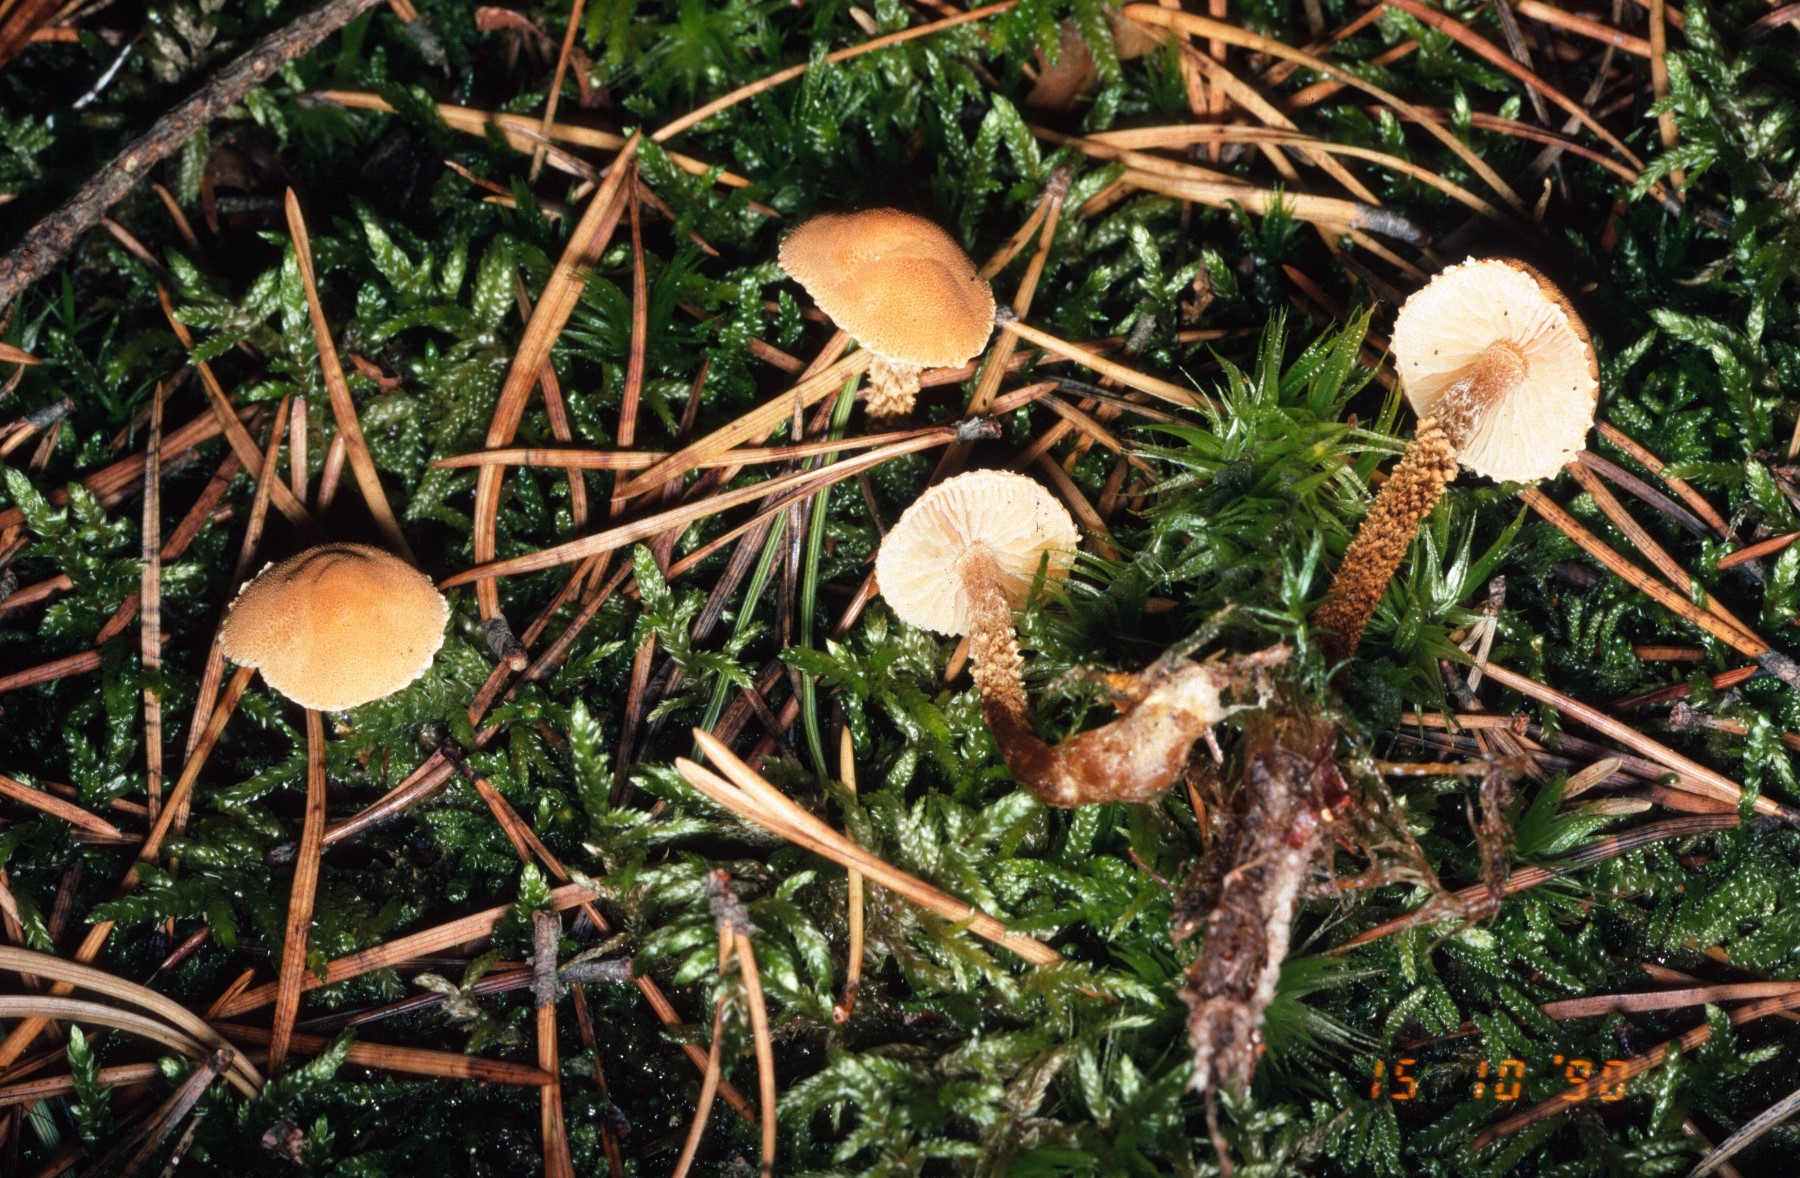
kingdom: Fungi
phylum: Basidiomycota
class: Agaricomycetes
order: Agaricales
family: Tricholomataceae
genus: Cystoderma
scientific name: Cystoderma amianthinum
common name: okkergul grynhat
